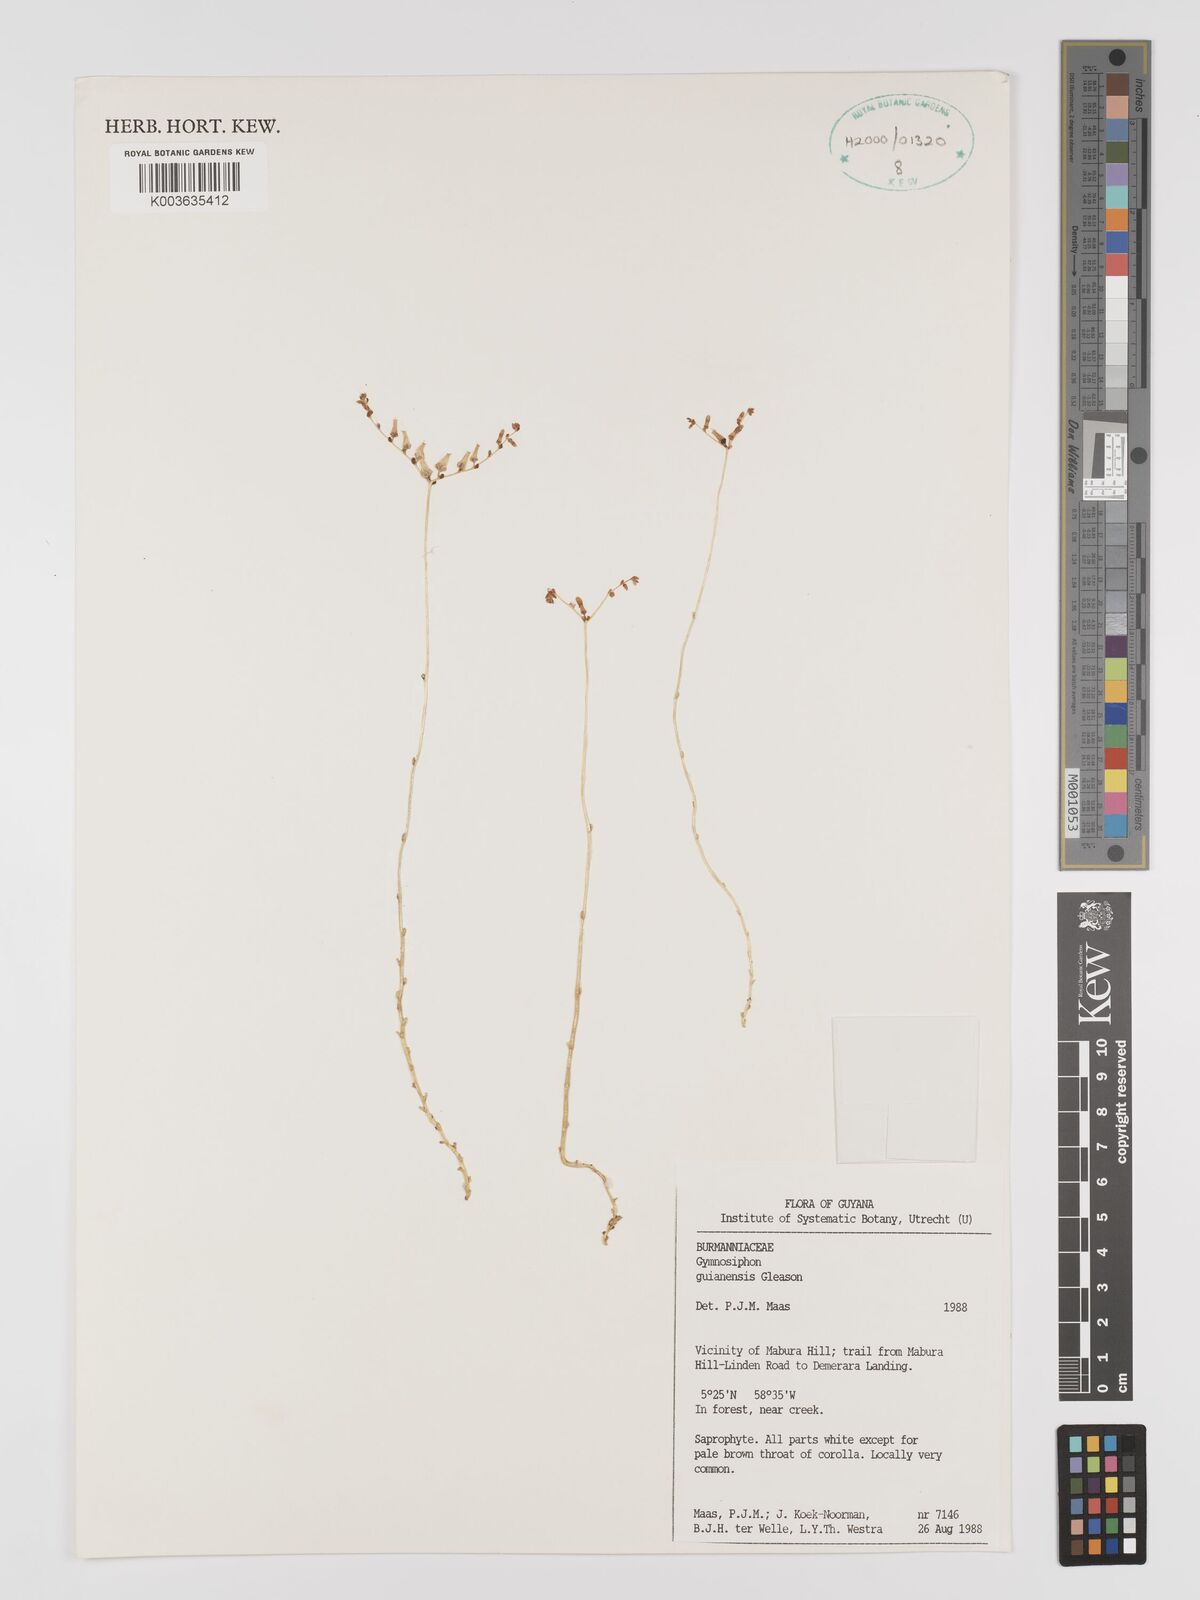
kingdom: Plantae
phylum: Tracheophyta
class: Liliopsida
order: Dioscoreales
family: Burmanniaceae
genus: Gymnosiphon
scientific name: Gymnosiphon guianensis
